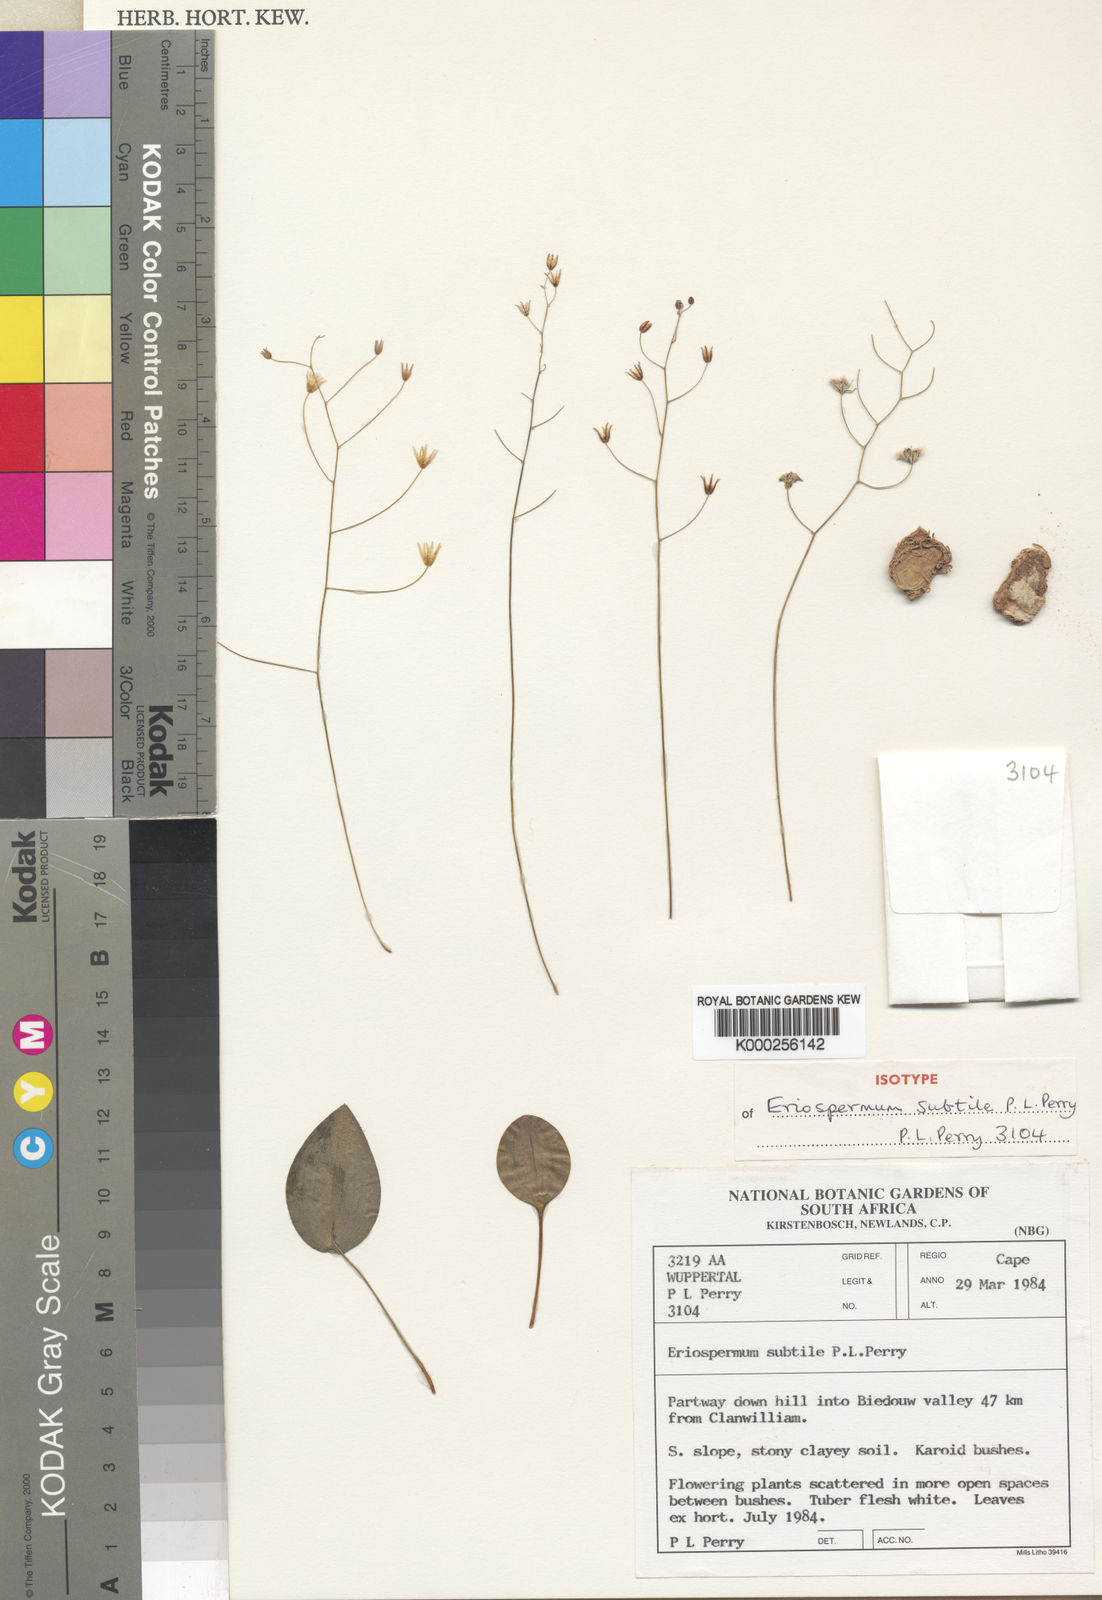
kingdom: Plantae
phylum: Tracheophyta
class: Liliopsida
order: Asparagales
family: Asparagaceae
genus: Eriospermum
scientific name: Eriospermum subtile
